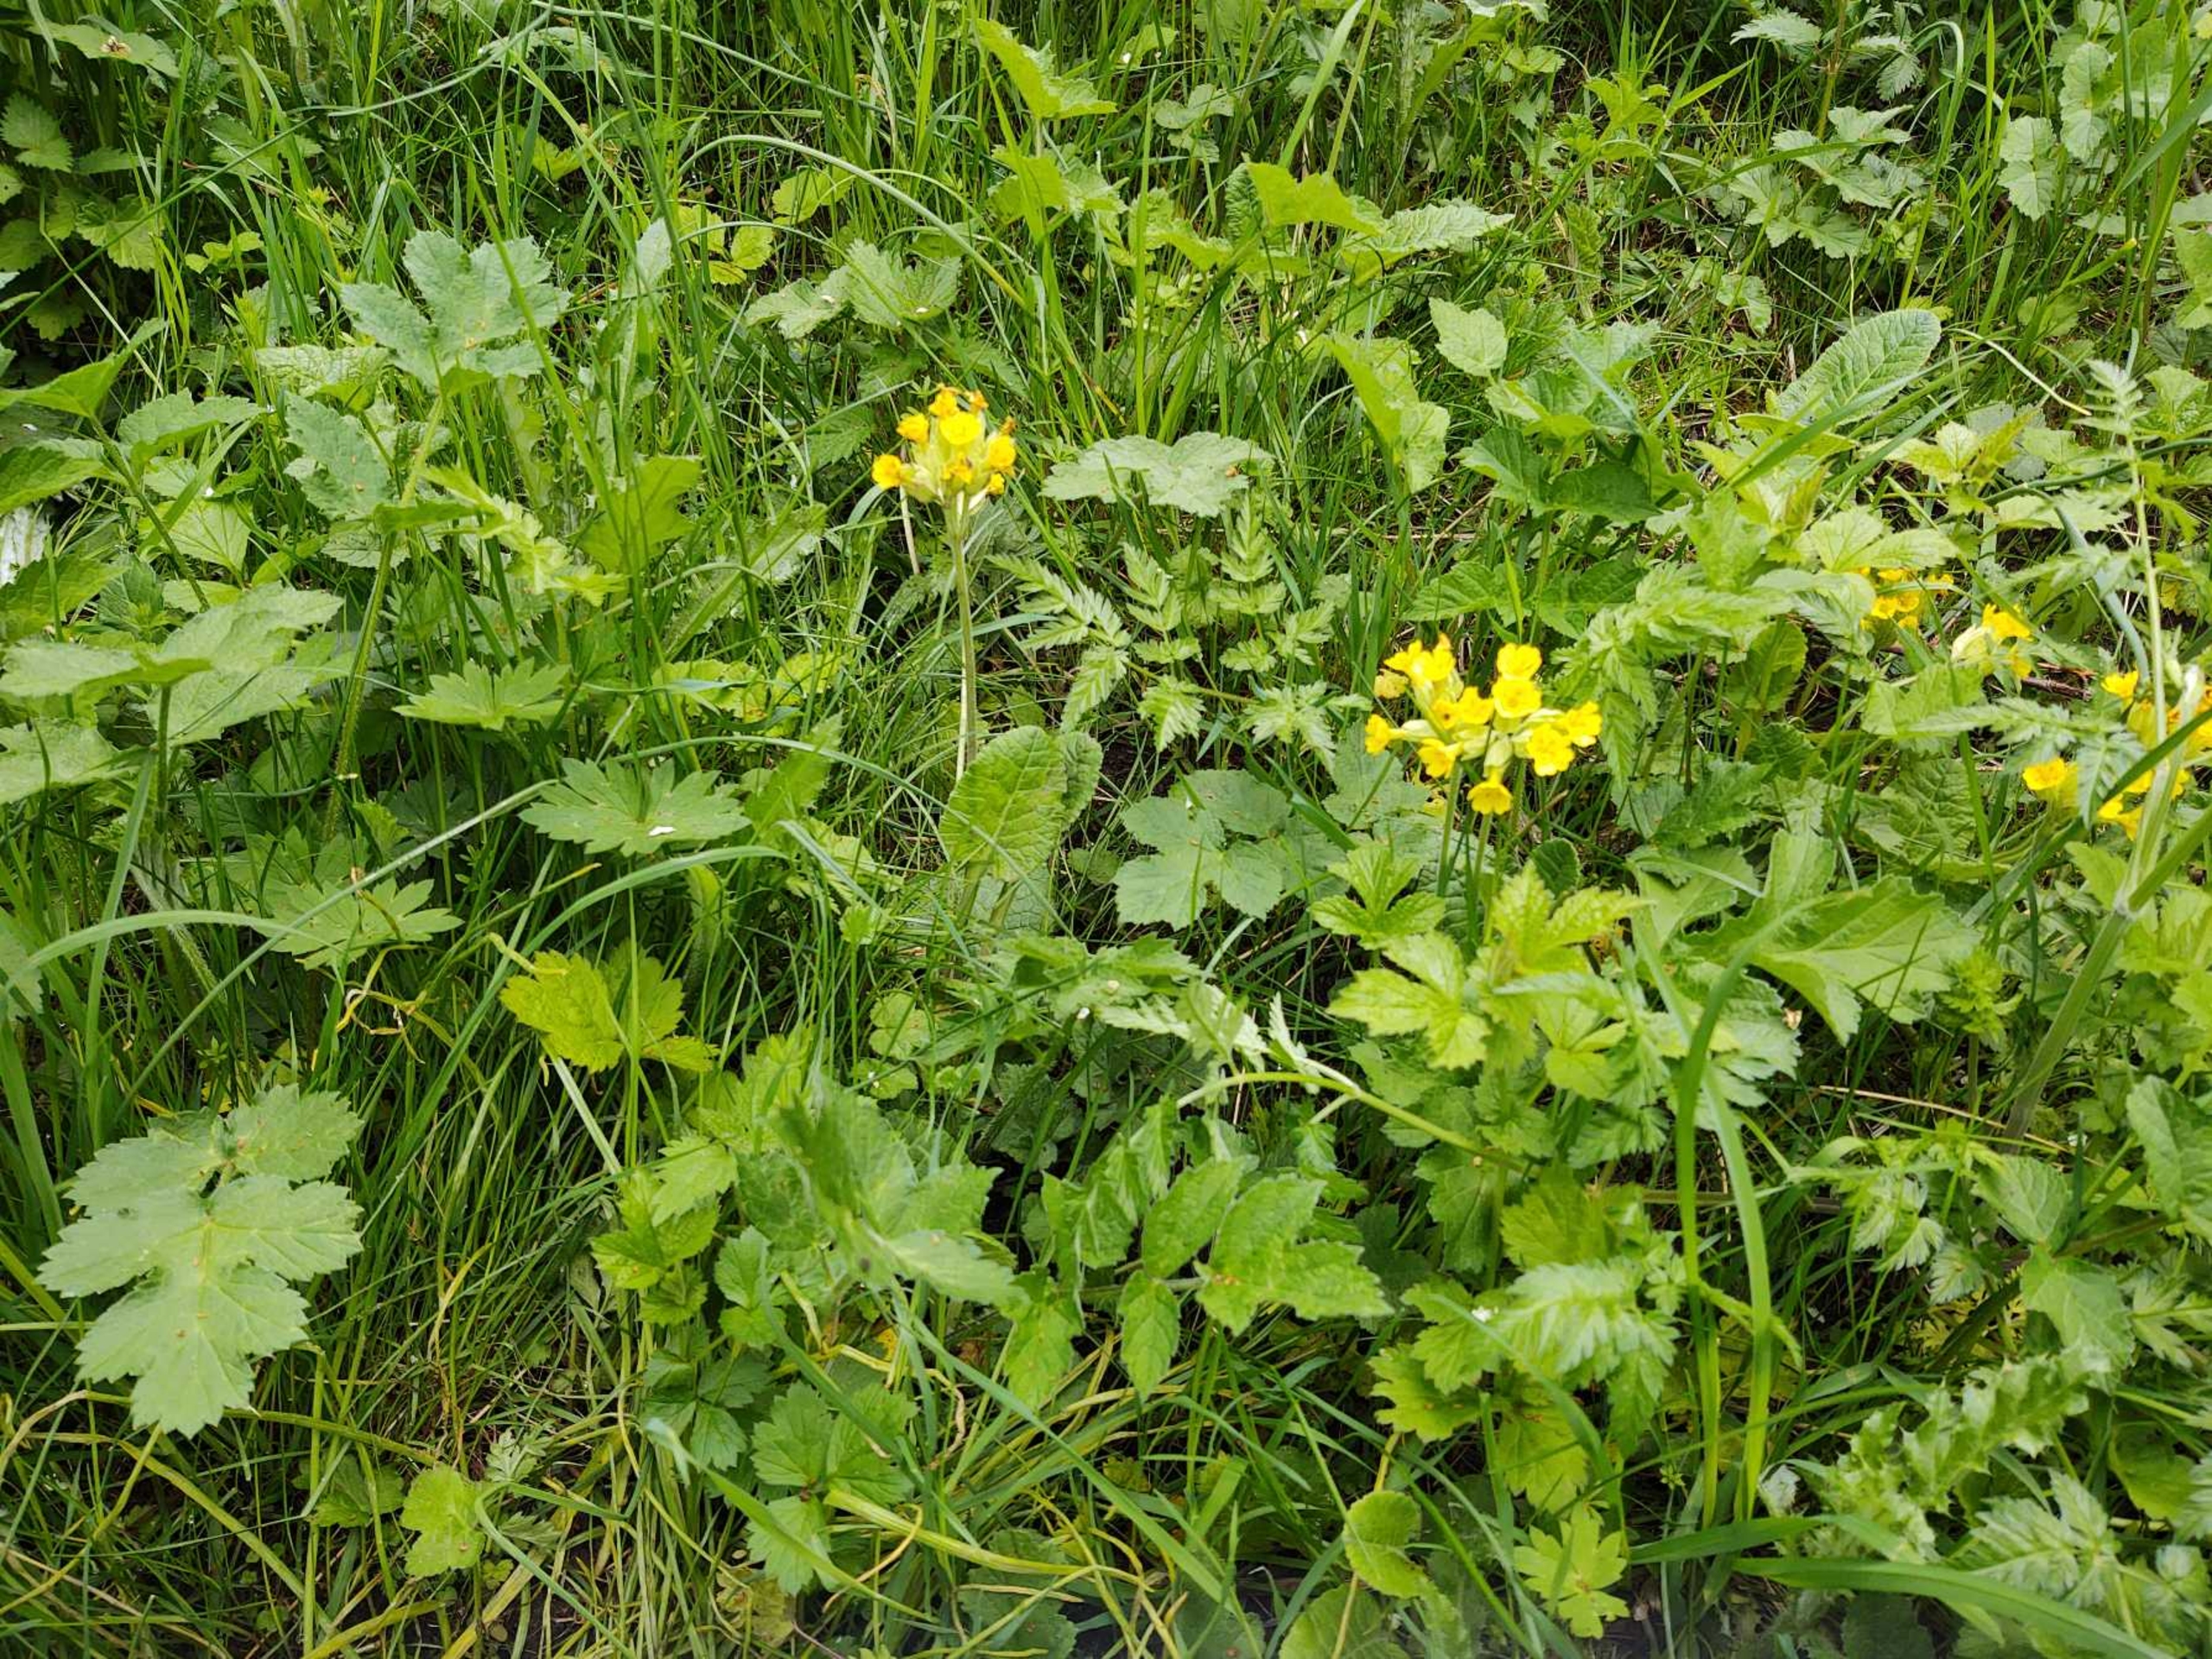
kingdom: Plantae
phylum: Tracheophyta
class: Magnoliopsida
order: Ericales
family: Primulaceae
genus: Primula
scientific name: Primula veris
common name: Hulkravet kodriver
